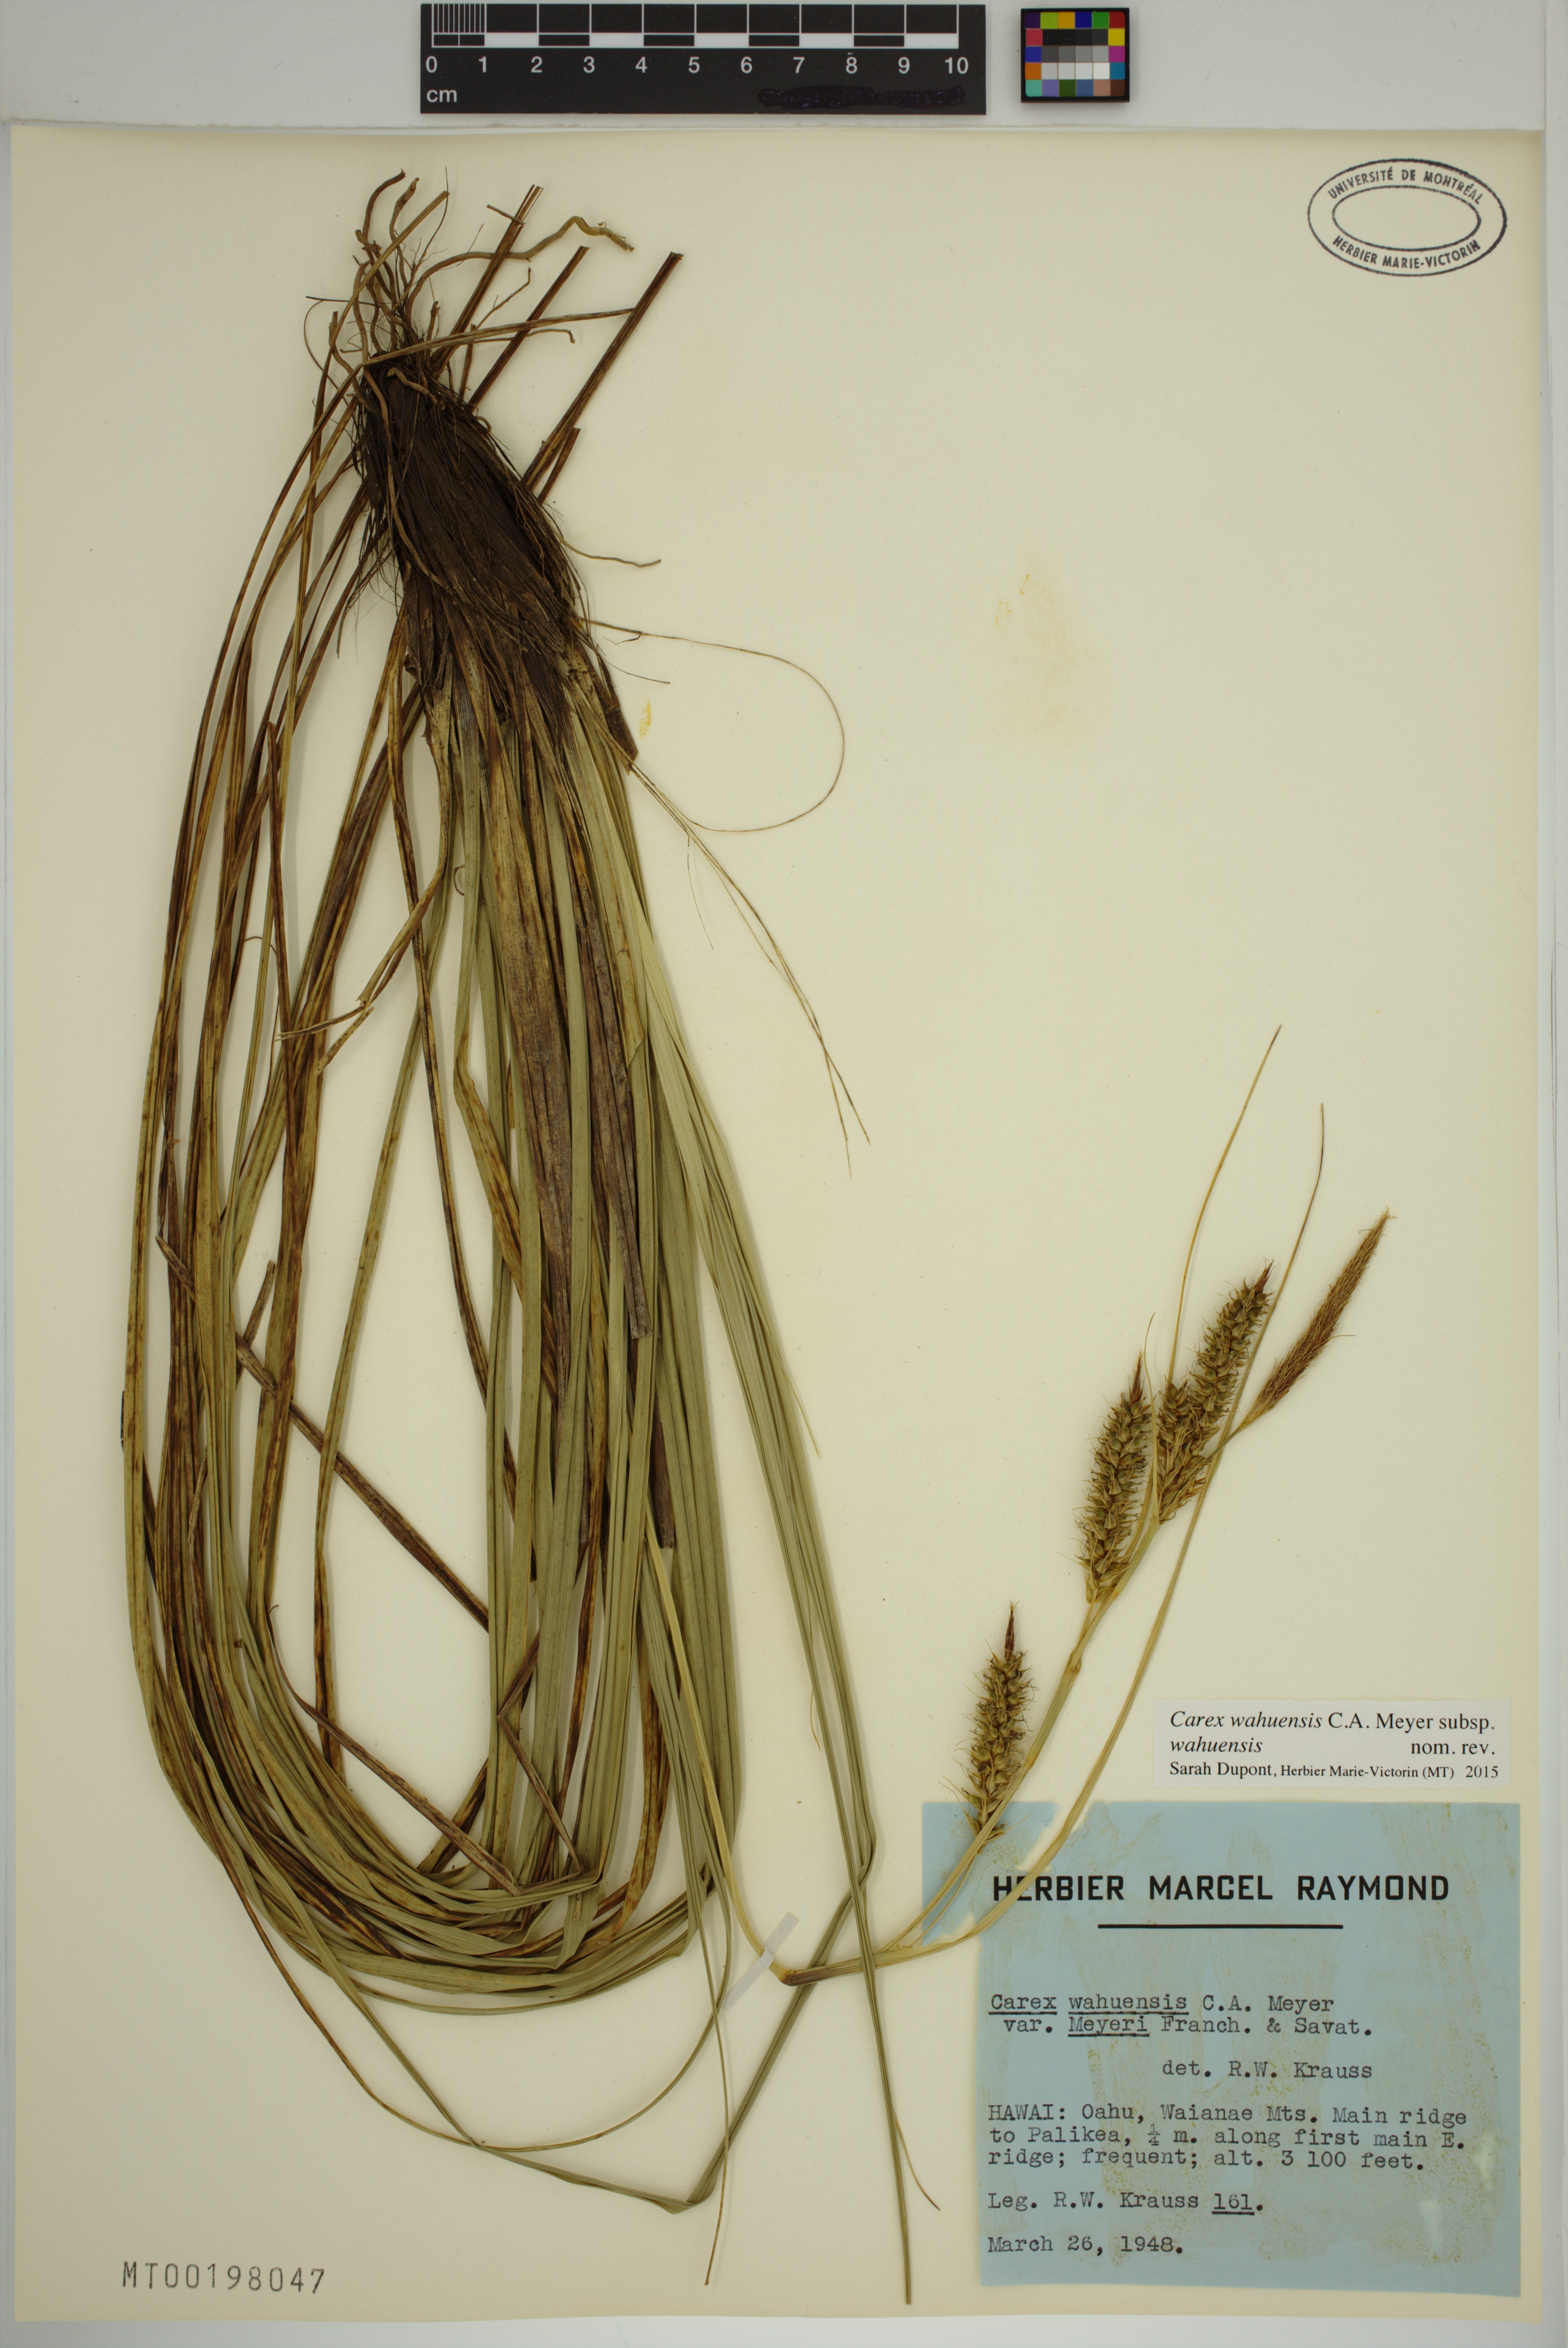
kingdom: Plantae
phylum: Tracheophyta
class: Liliopsida
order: Poales
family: Cyperaceae
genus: Carex
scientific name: Carex wahuensis
